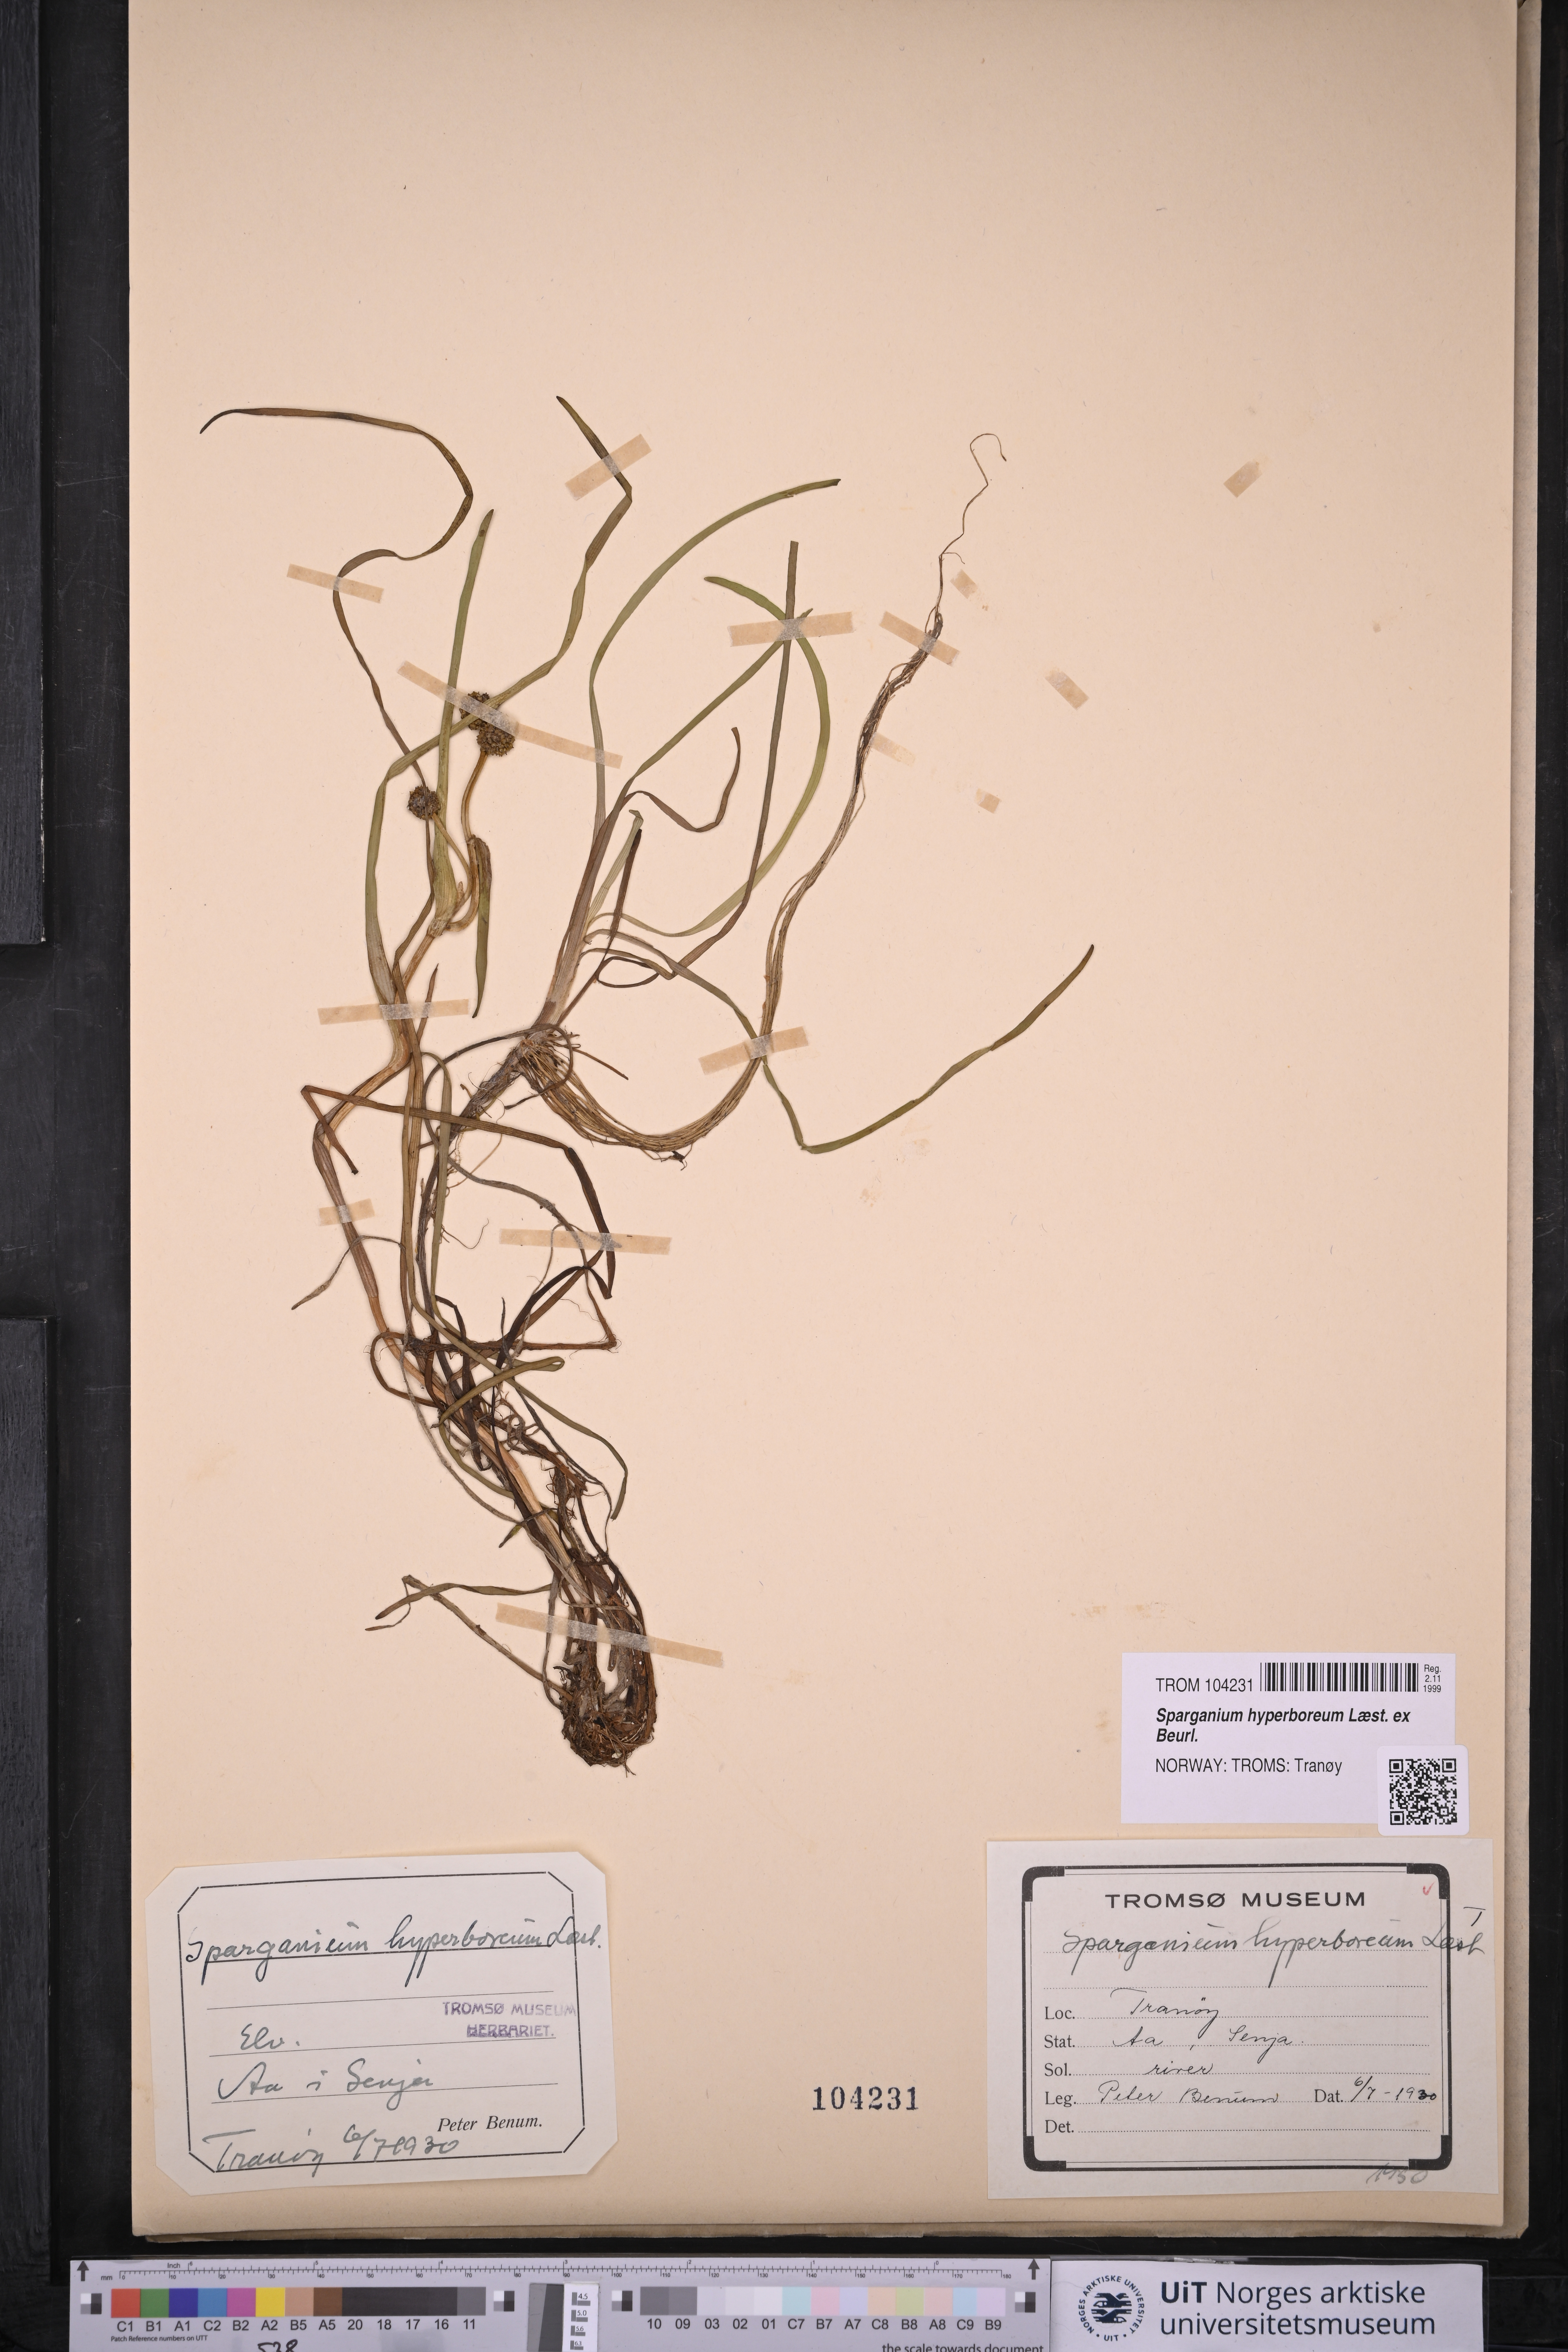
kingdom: Plantae
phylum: Tracheophyta
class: Liliopsida
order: Poales
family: Typhaceae
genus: Sparganium
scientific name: Sparganium hyperboreum
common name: Arctic burreed
